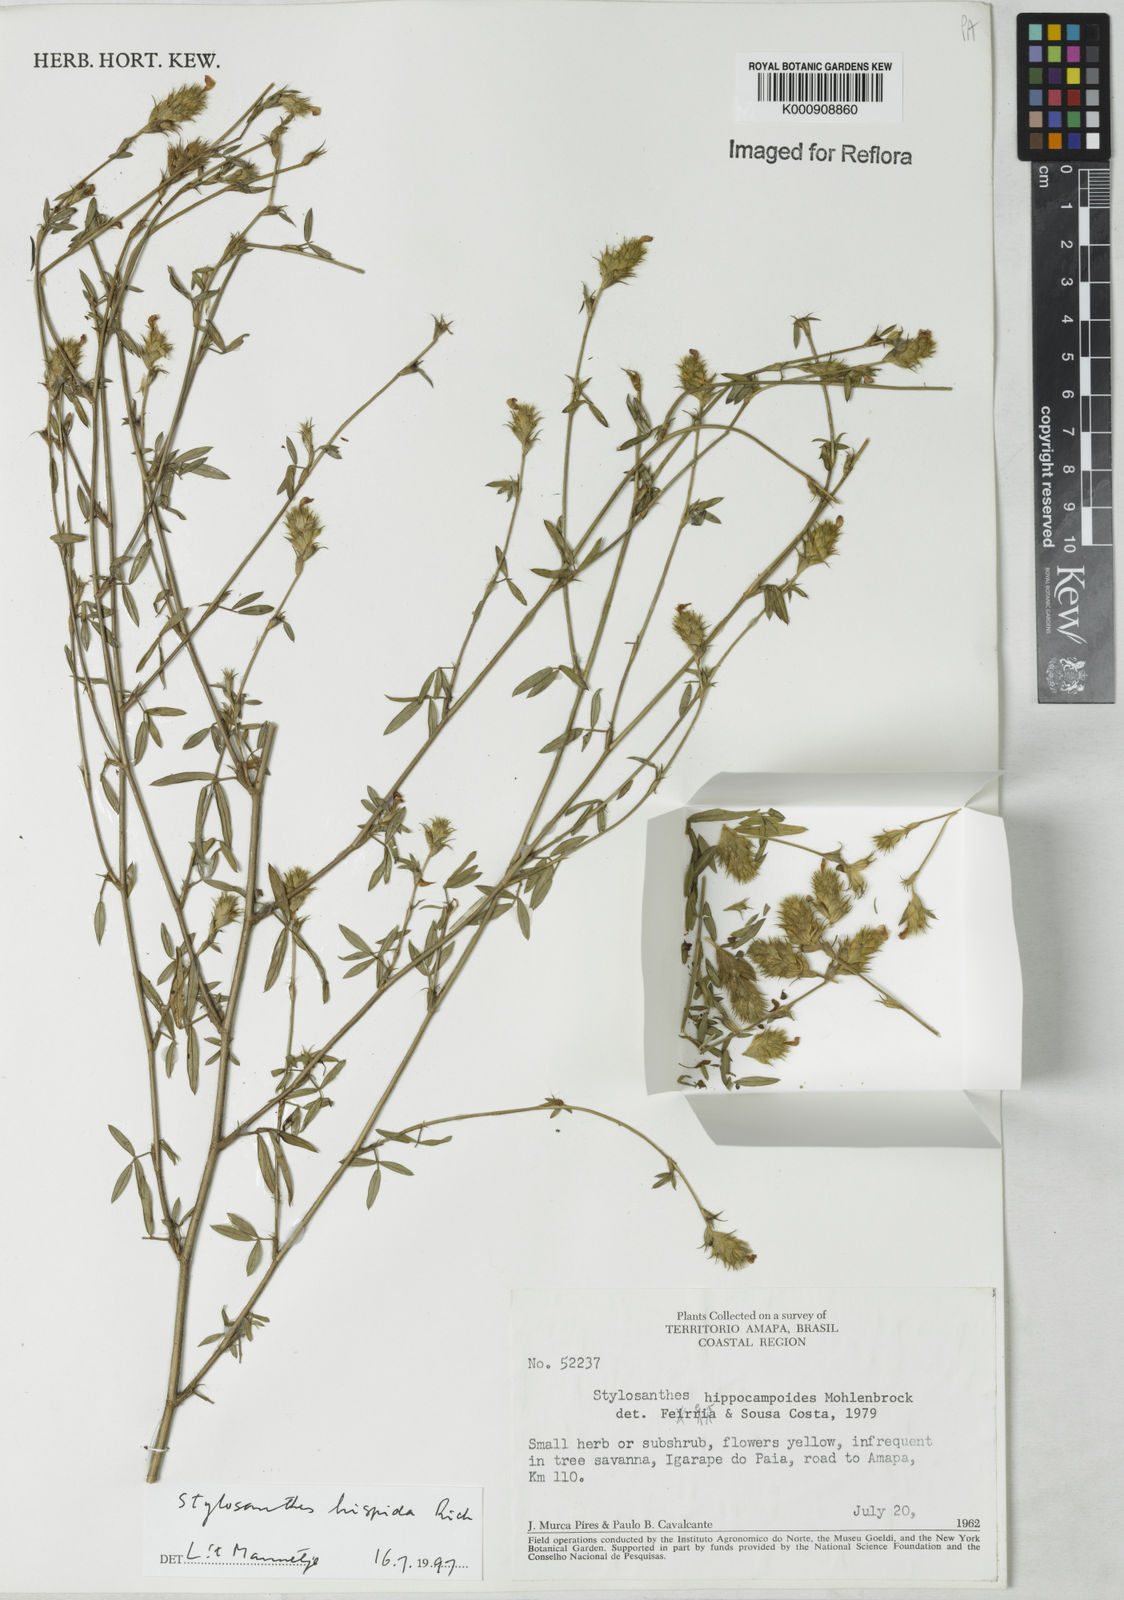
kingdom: Plantae
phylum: Tracheophyta
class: Magnoliopsida
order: Fabales
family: Fabaceae
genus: Stylosanthes
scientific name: Stylosanthes
